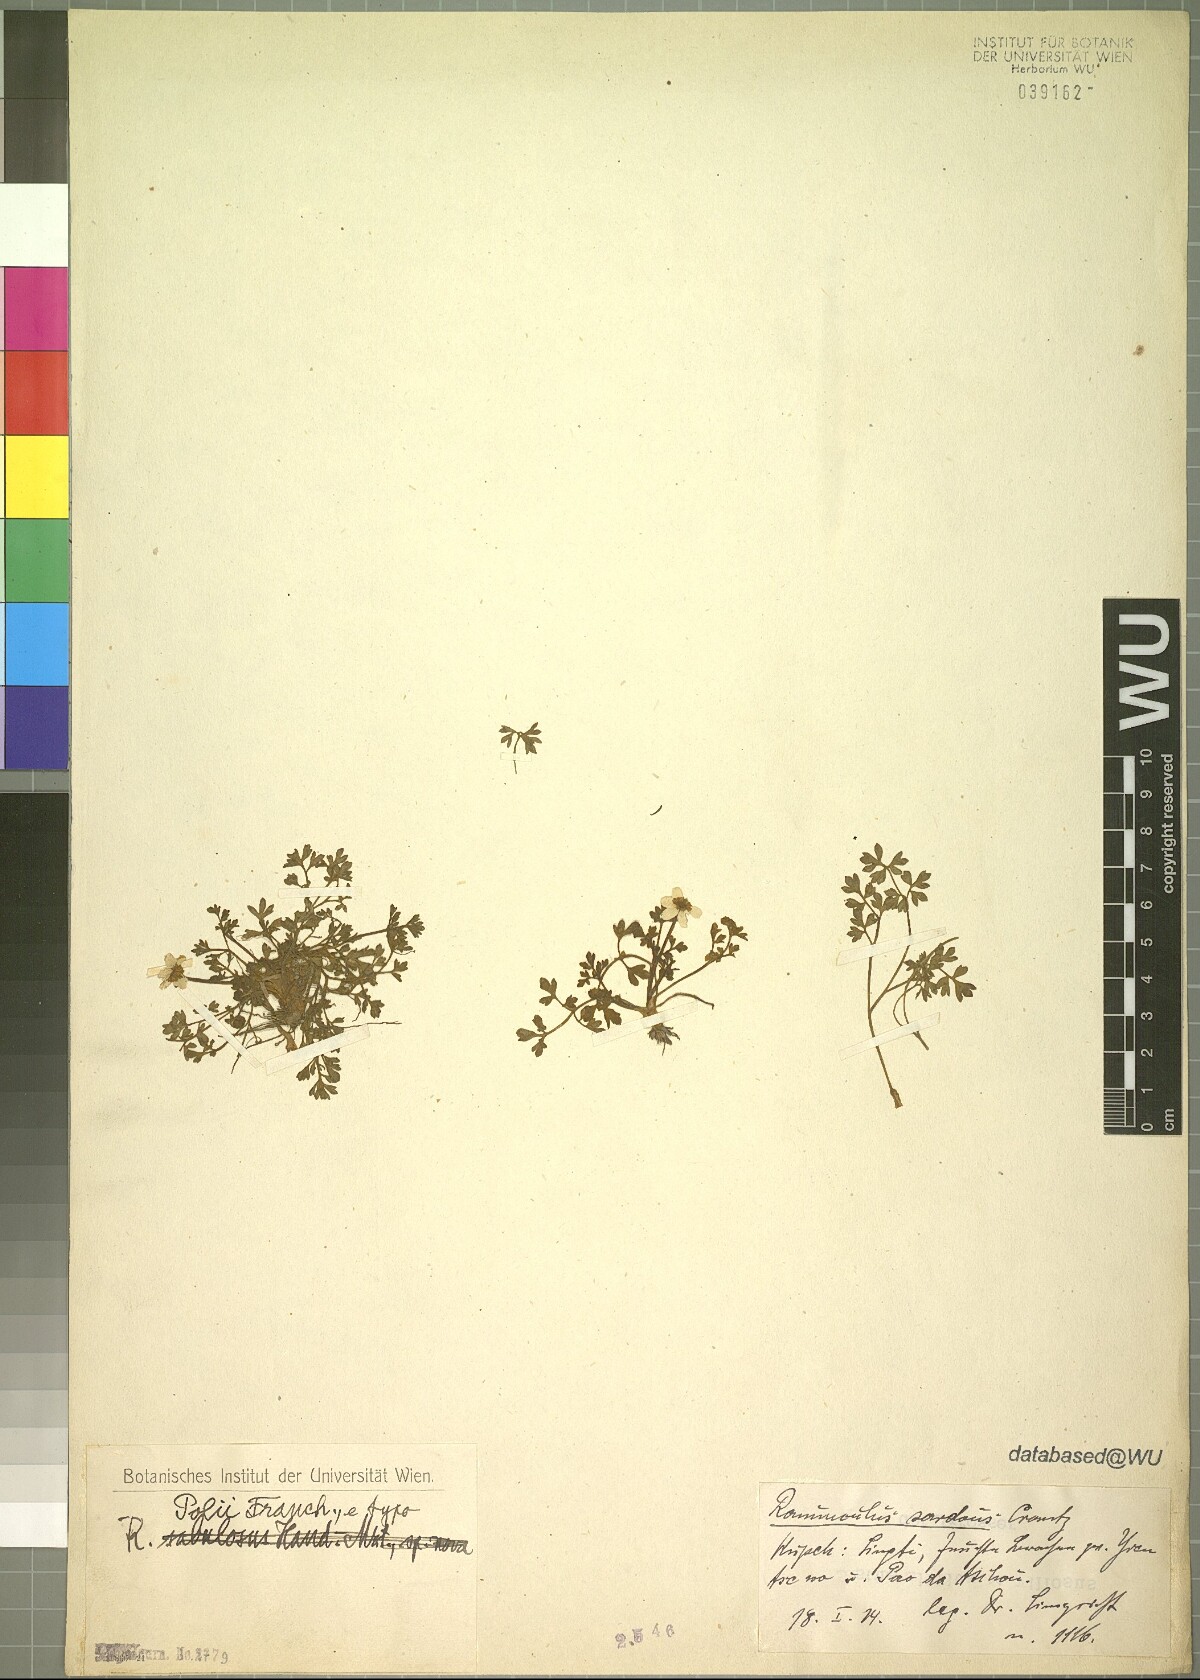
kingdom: Plantae
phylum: Tracheophyta
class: Magnoliopsida
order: Ranunculales
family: Ranunculaceae
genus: Ranunculus
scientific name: Ranunculus polii
